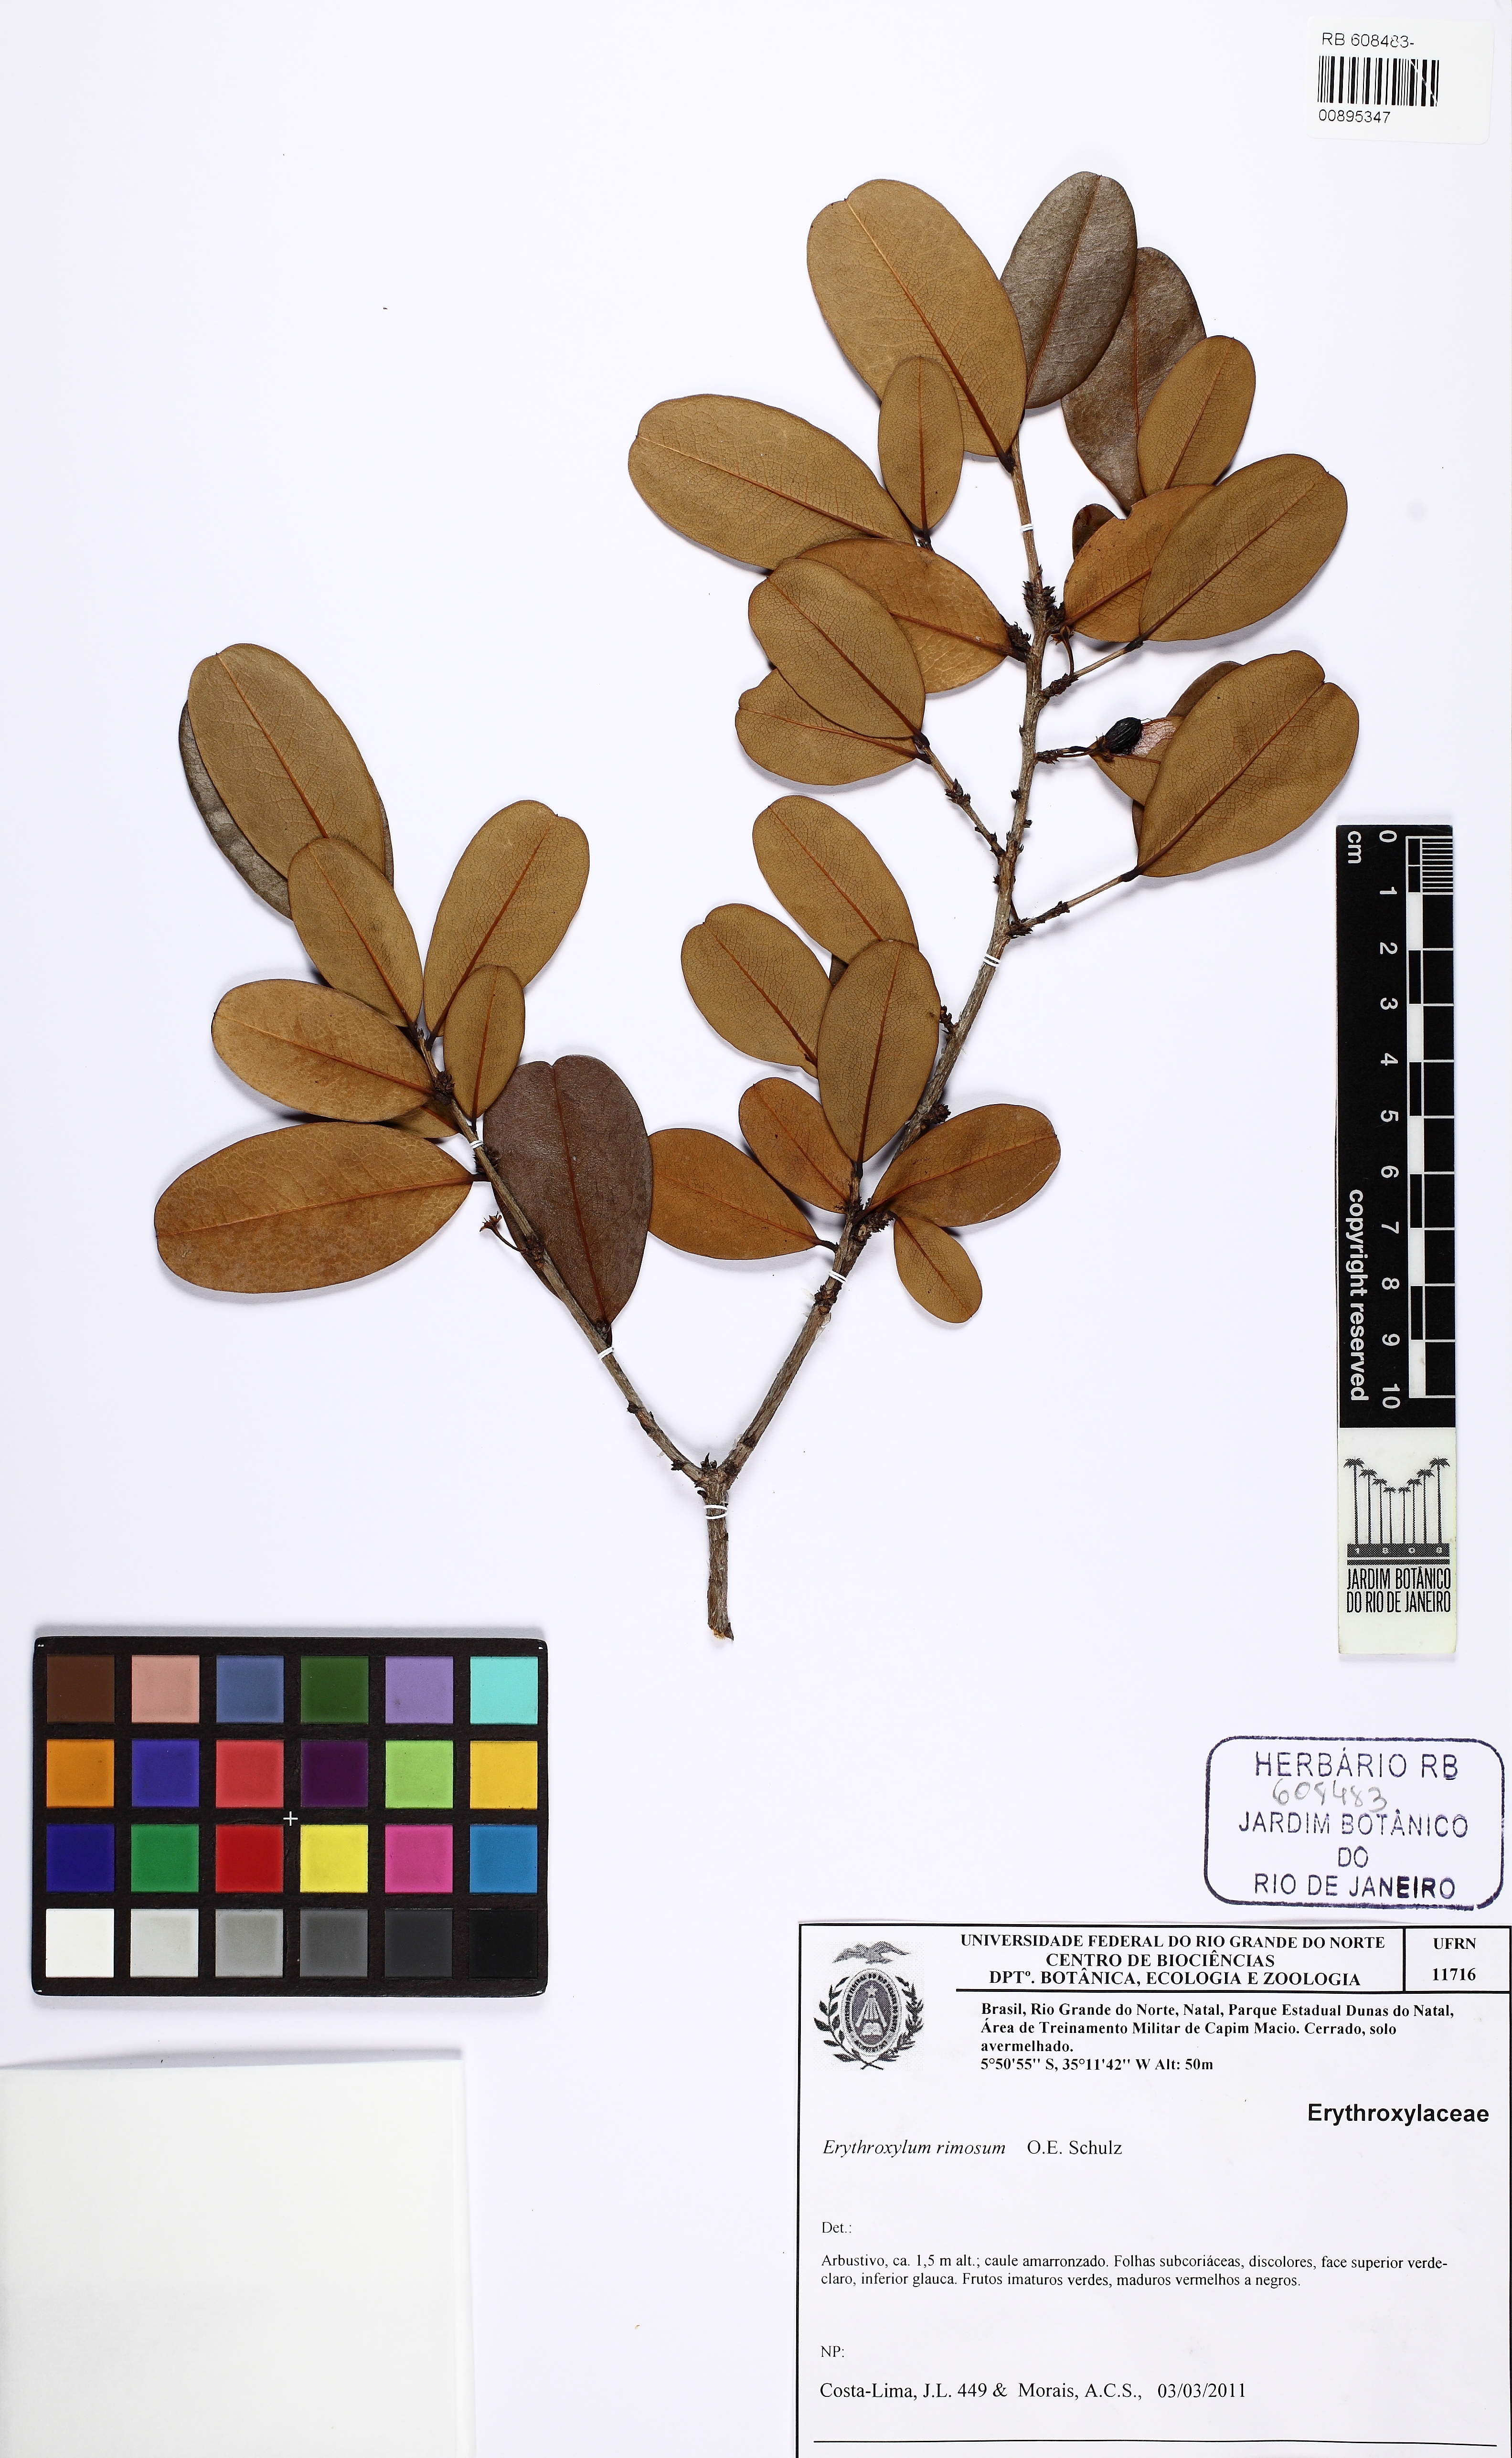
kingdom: Plantae
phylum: Tracheophyta
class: Magnoliopsida
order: Malpighiales
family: Erythroxylaceae
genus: Erythroxylum
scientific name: Erythroxylum rimosum
